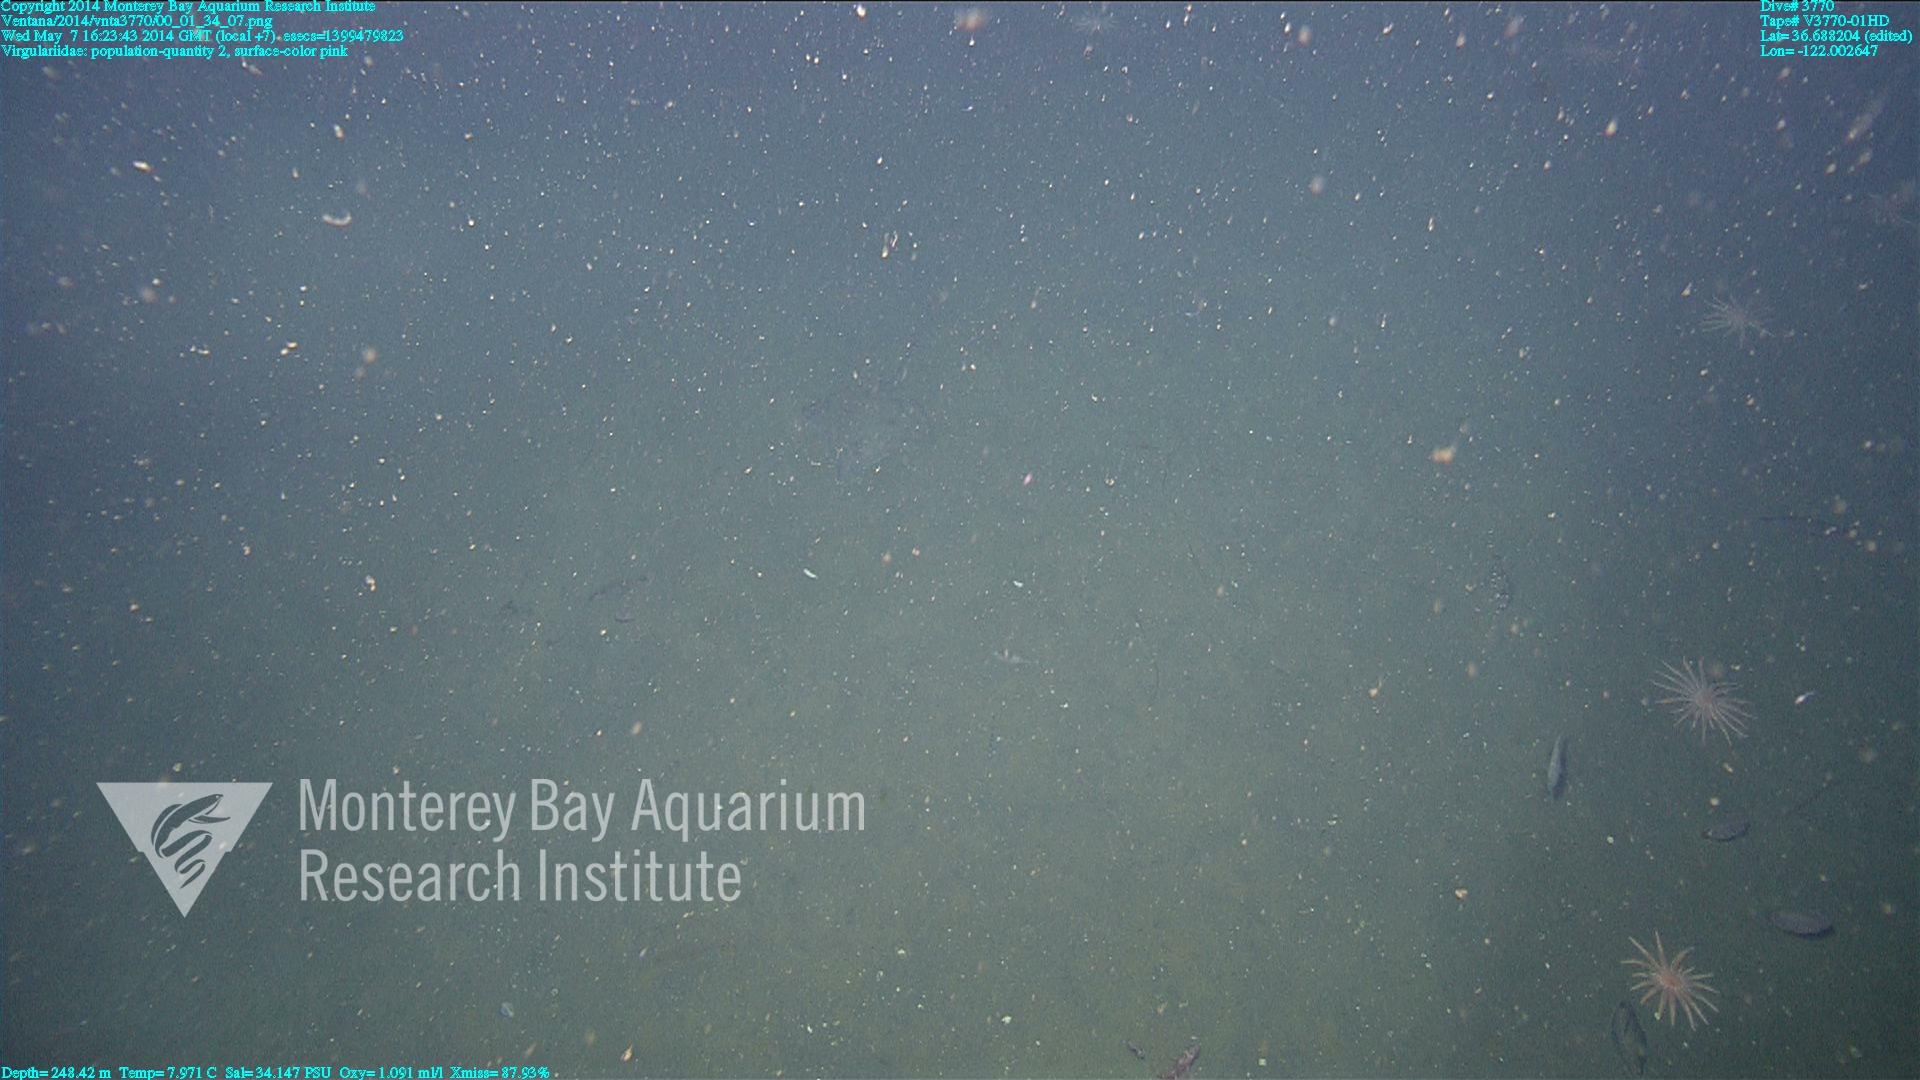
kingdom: Animalia
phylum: Cnidaria
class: Anthozoa
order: Scleralcyonacea
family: Virgulariidae
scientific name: Virgulariidae
